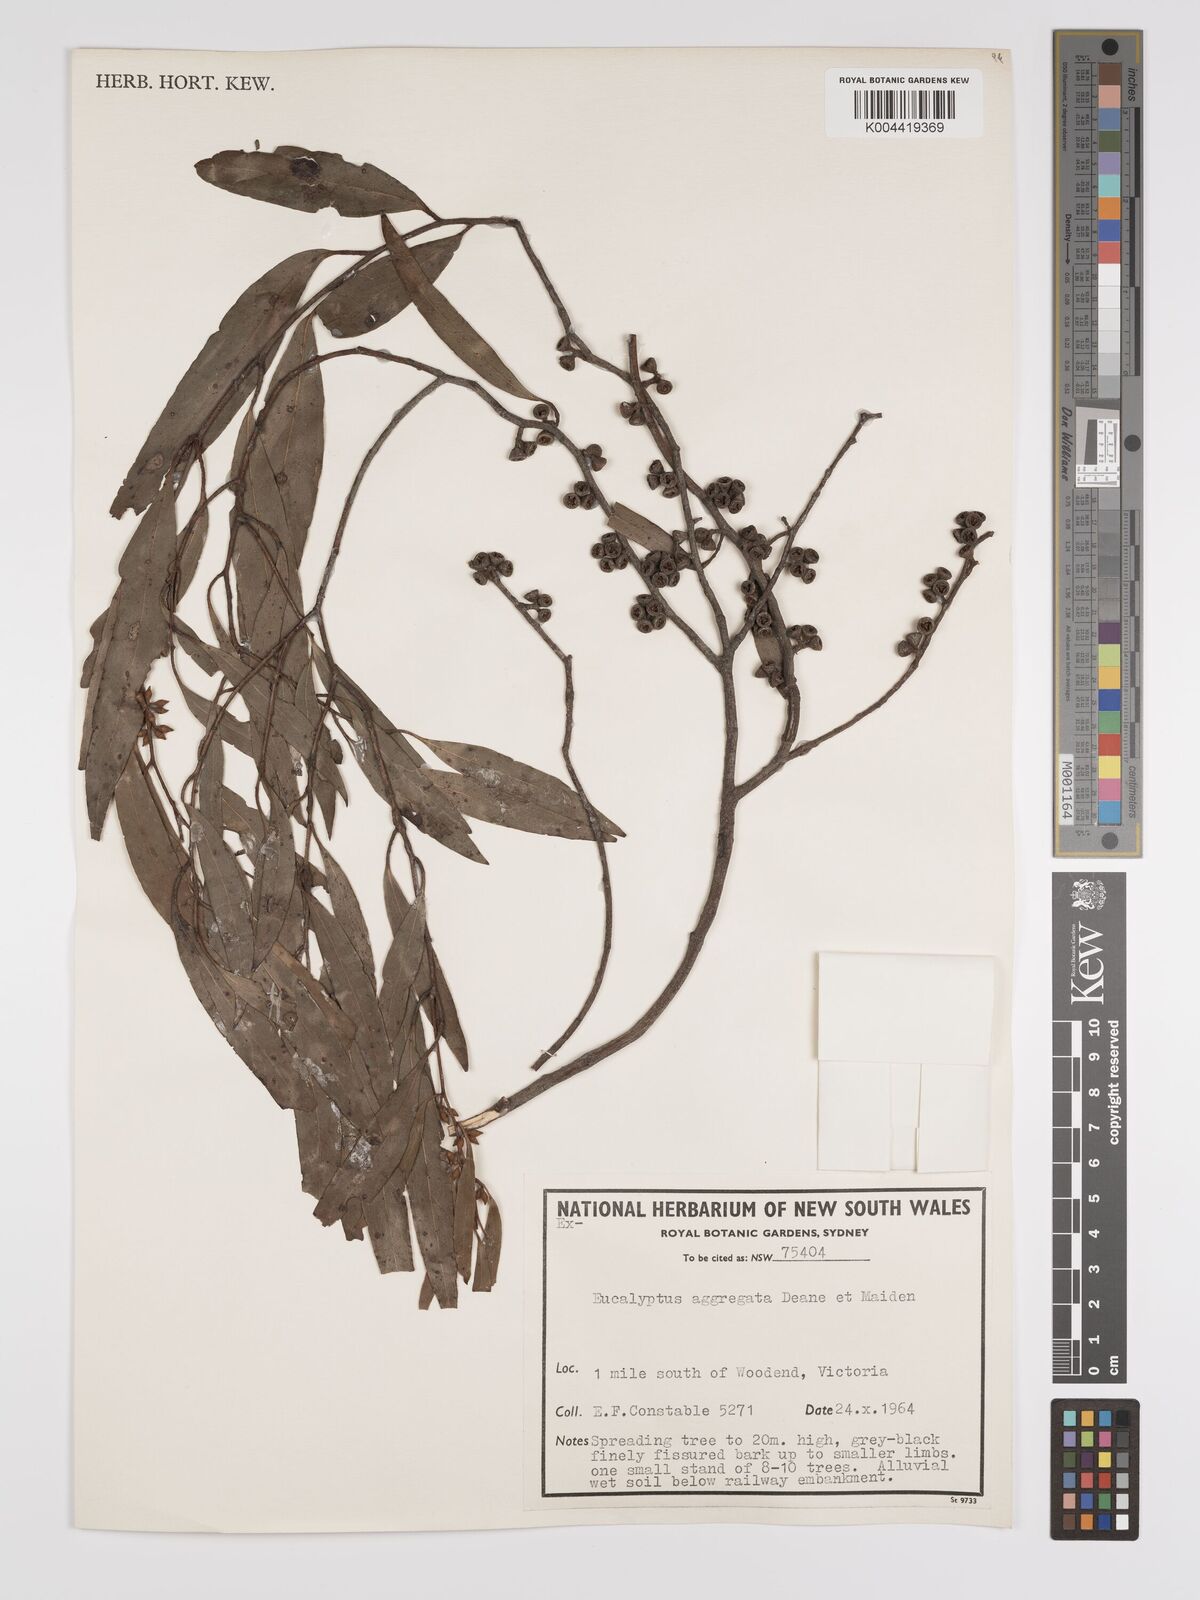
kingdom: Plantae
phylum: Tracheophyta
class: Magnoliopsida
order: Myrtales
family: Myrtaceae
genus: Eucalyptus
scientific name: Eucalyptus aggregata
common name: Black gum
